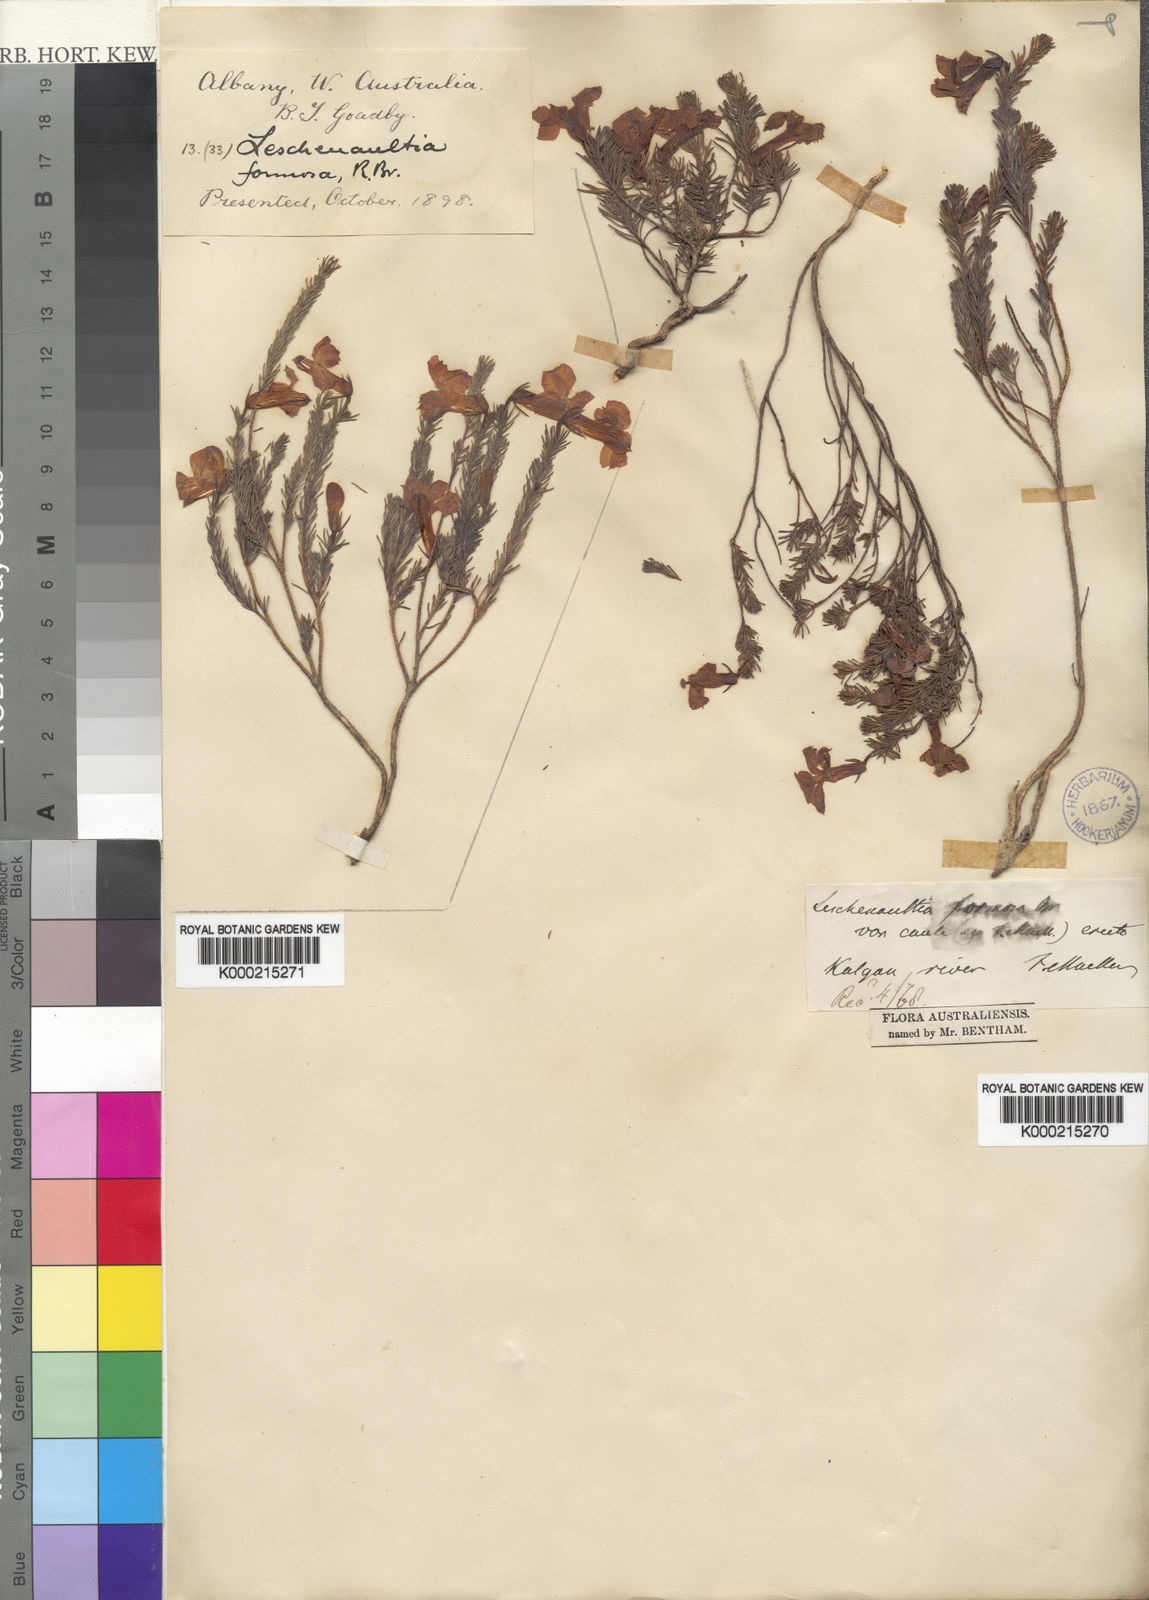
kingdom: Plantae
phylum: Tracheophyta
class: Magnoliopsida
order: Asterales
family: Goodeniaceae
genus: Leschenaultia
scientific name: Leschenaultia formosa
